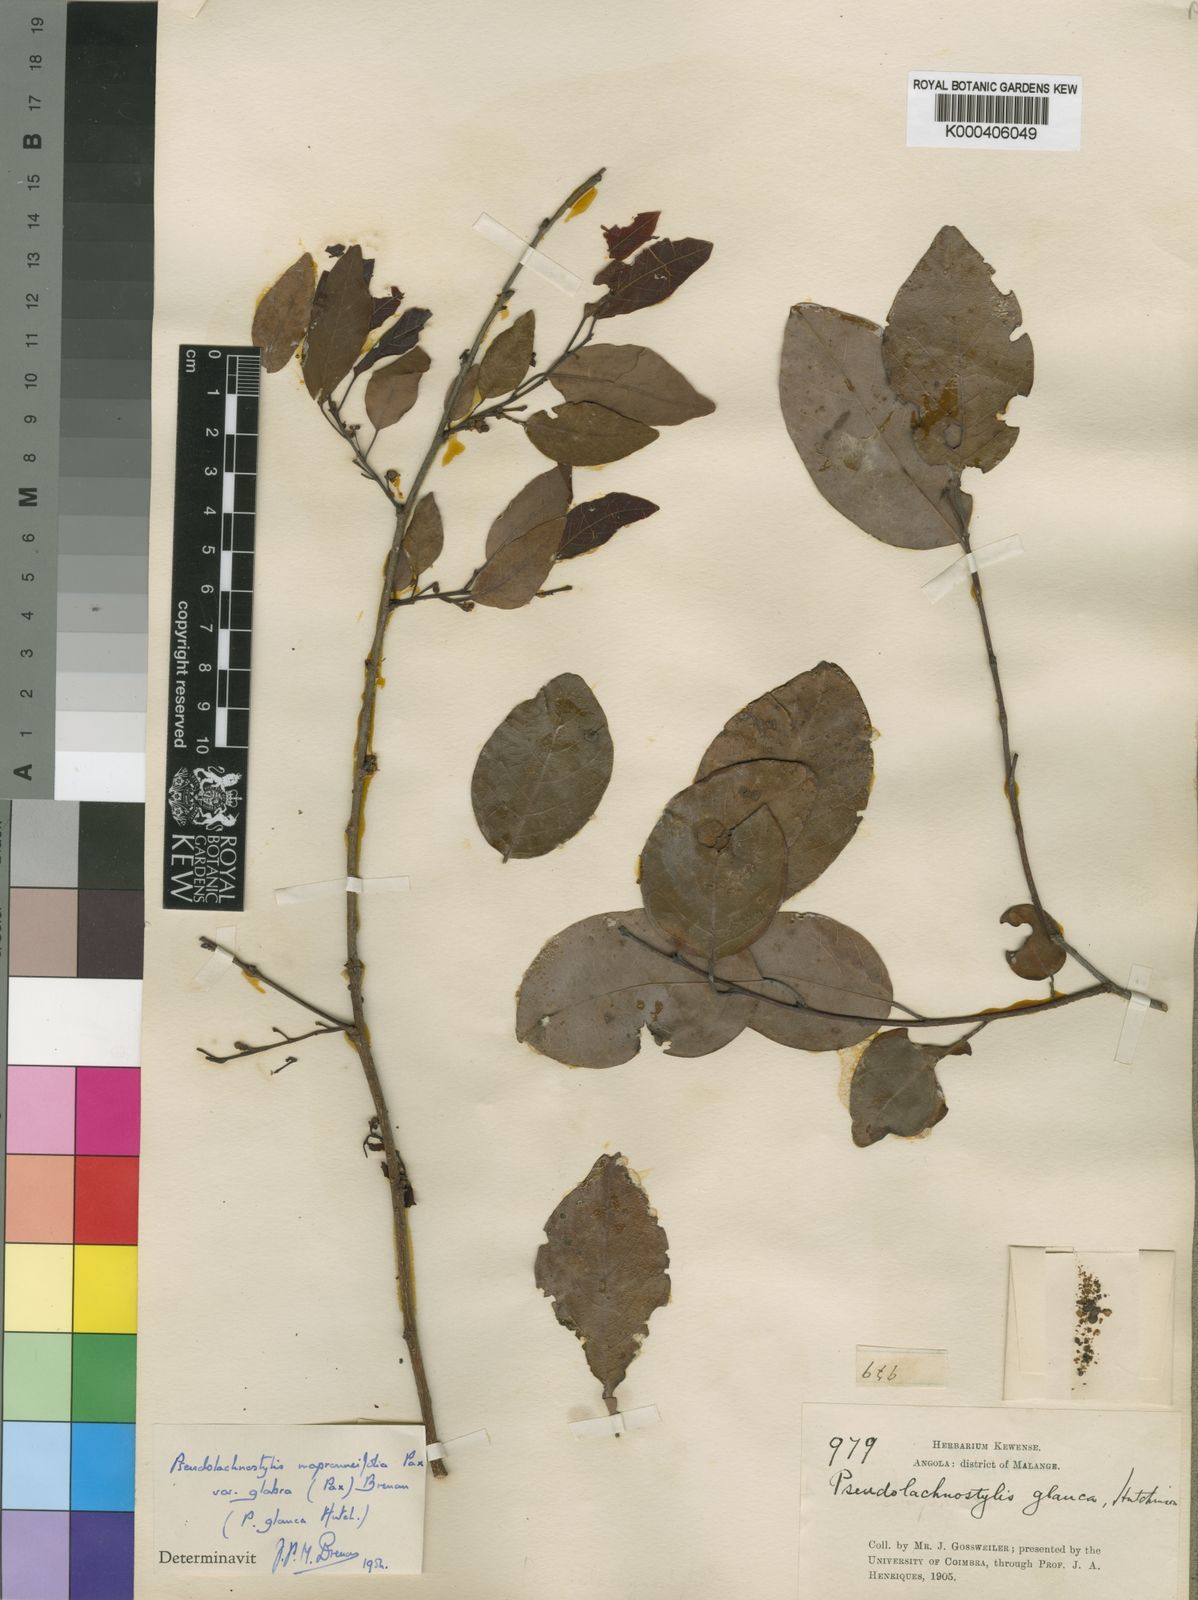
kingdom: Plantae
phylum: Tracheophyta
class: Magnoliopsida
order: Malpighiales
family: Phyllanthaceae
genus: Pseudolachnostylis
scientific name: Pseudolachnostylis maprouneifolia
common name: Kudu berry
